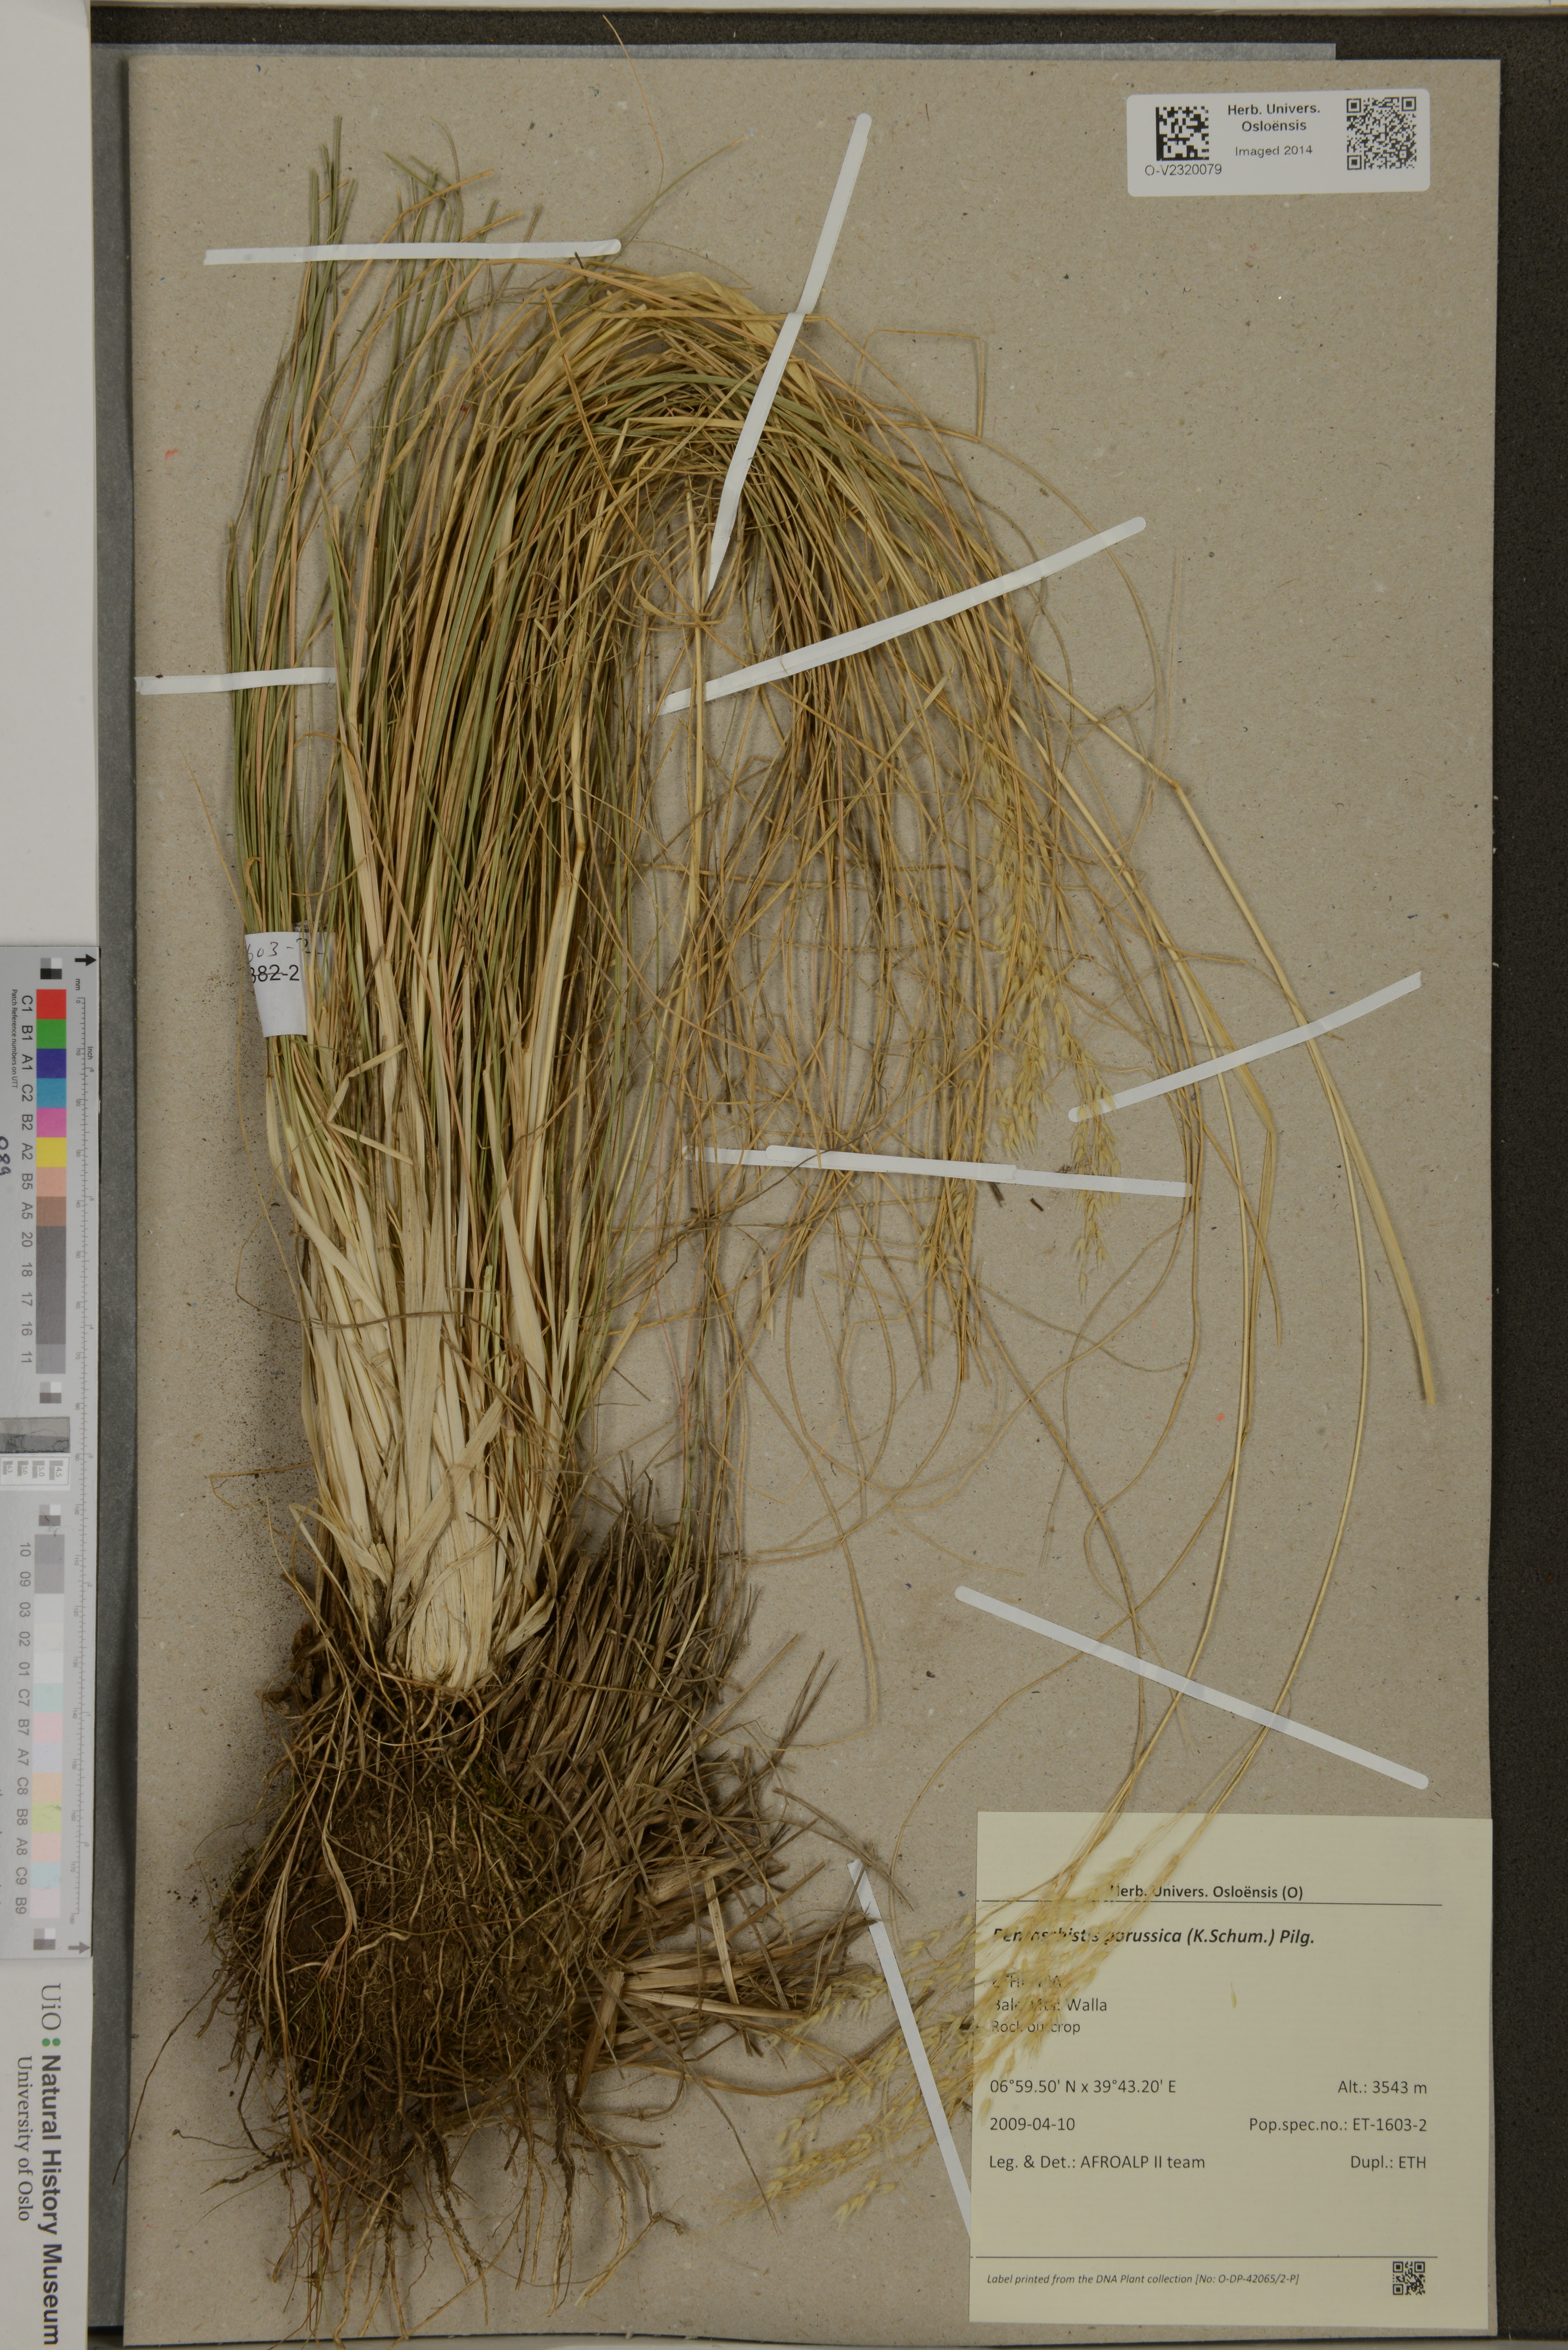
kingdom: Plantae
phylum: Tracheophyta
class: Liliopsida
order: Poales
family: Poaceae
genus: Pentameris
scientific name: Pentameris borussica
